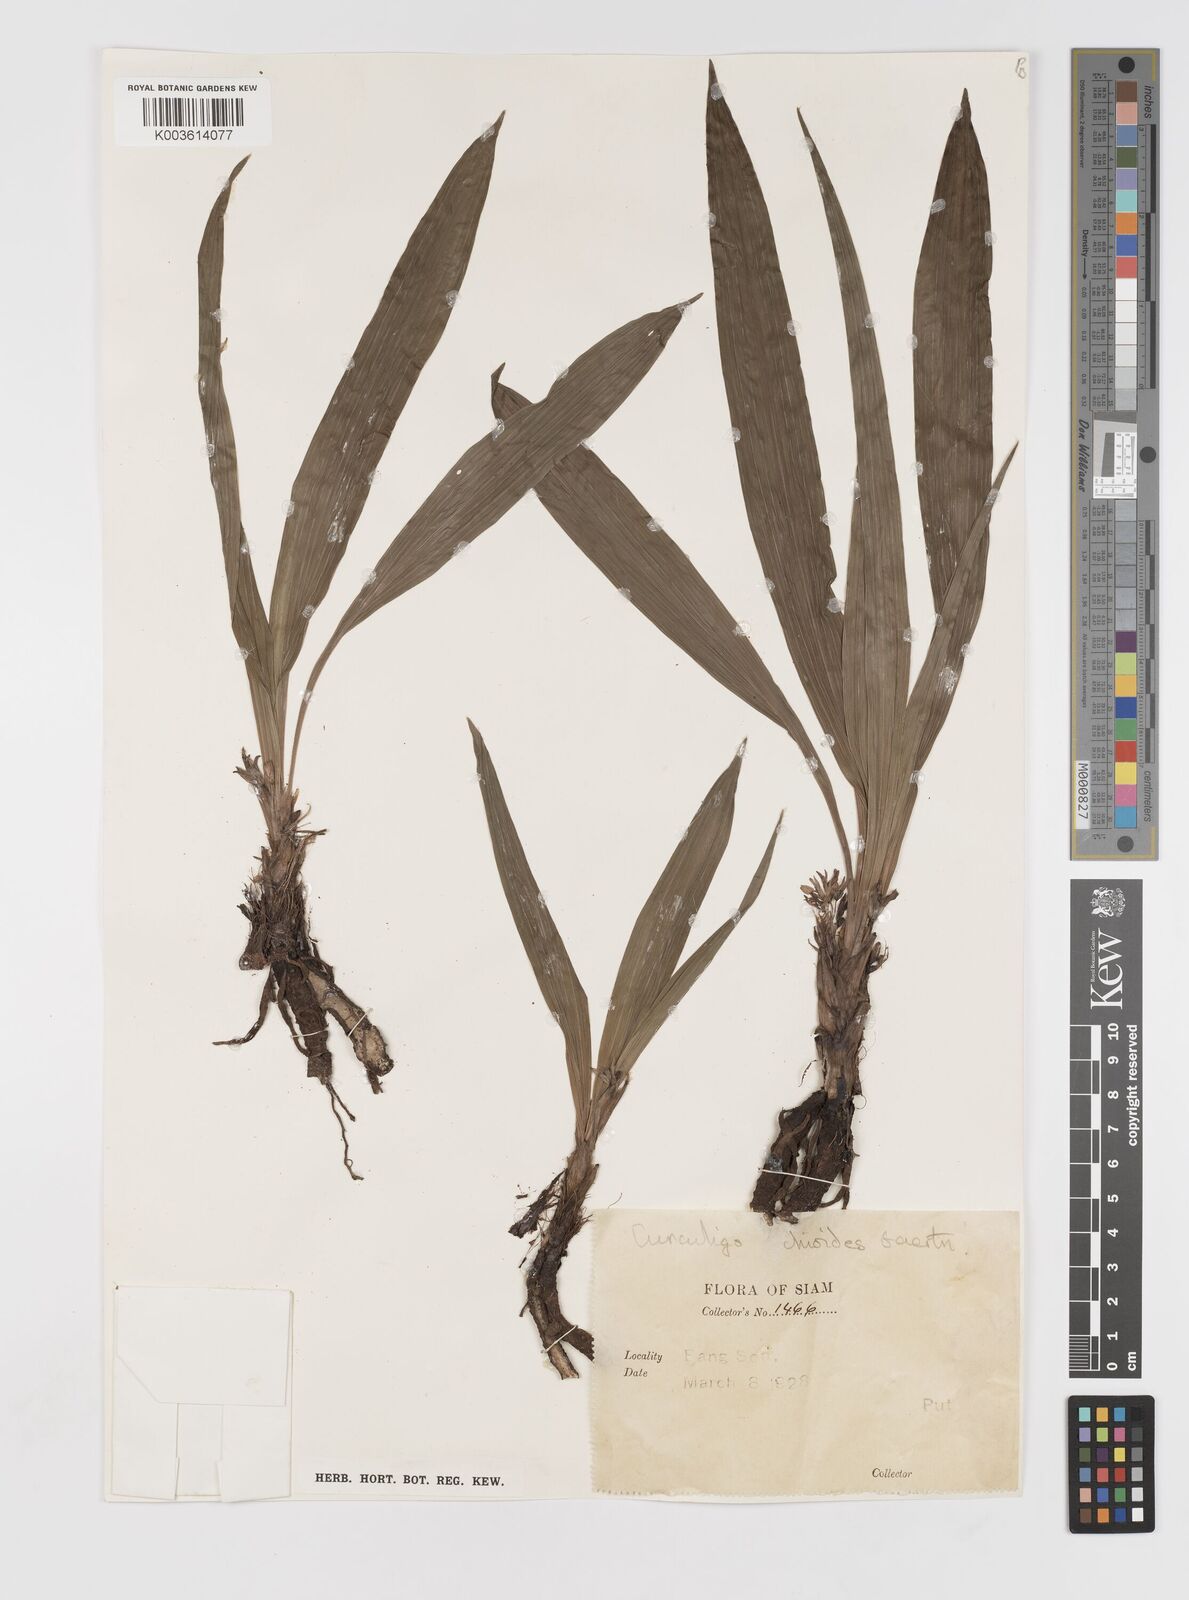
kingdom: Plantae
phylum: Tracheophyta
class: Liliopsida
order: Asparagales
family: Hypoxidaceae
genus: Curculigo
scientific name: Curculigo orchioides
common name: Golden eye-grass
